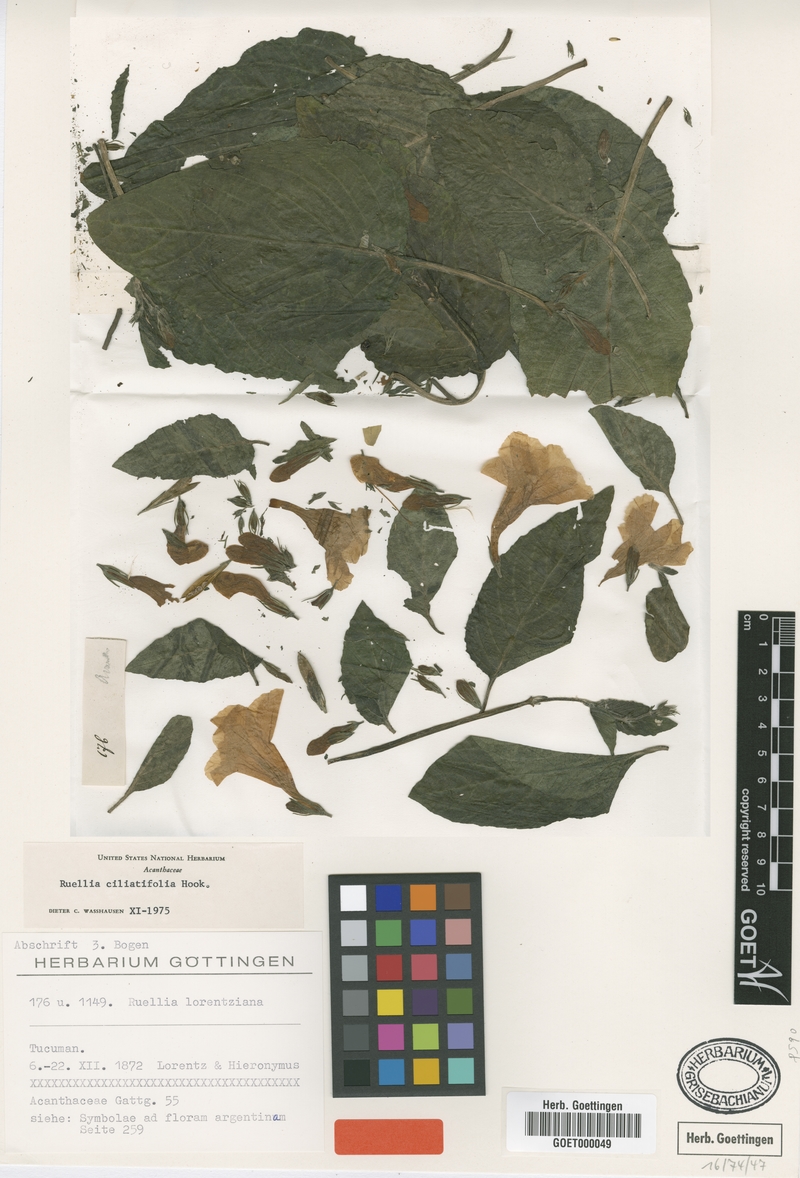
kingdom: Plantae
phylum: Tracheophyta
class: Magnoliopsida
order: Lamiales
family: Acanthaceae
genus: Ruellia
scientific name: Ruellia ciliatiflora
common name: Hairyflower wild petunia
